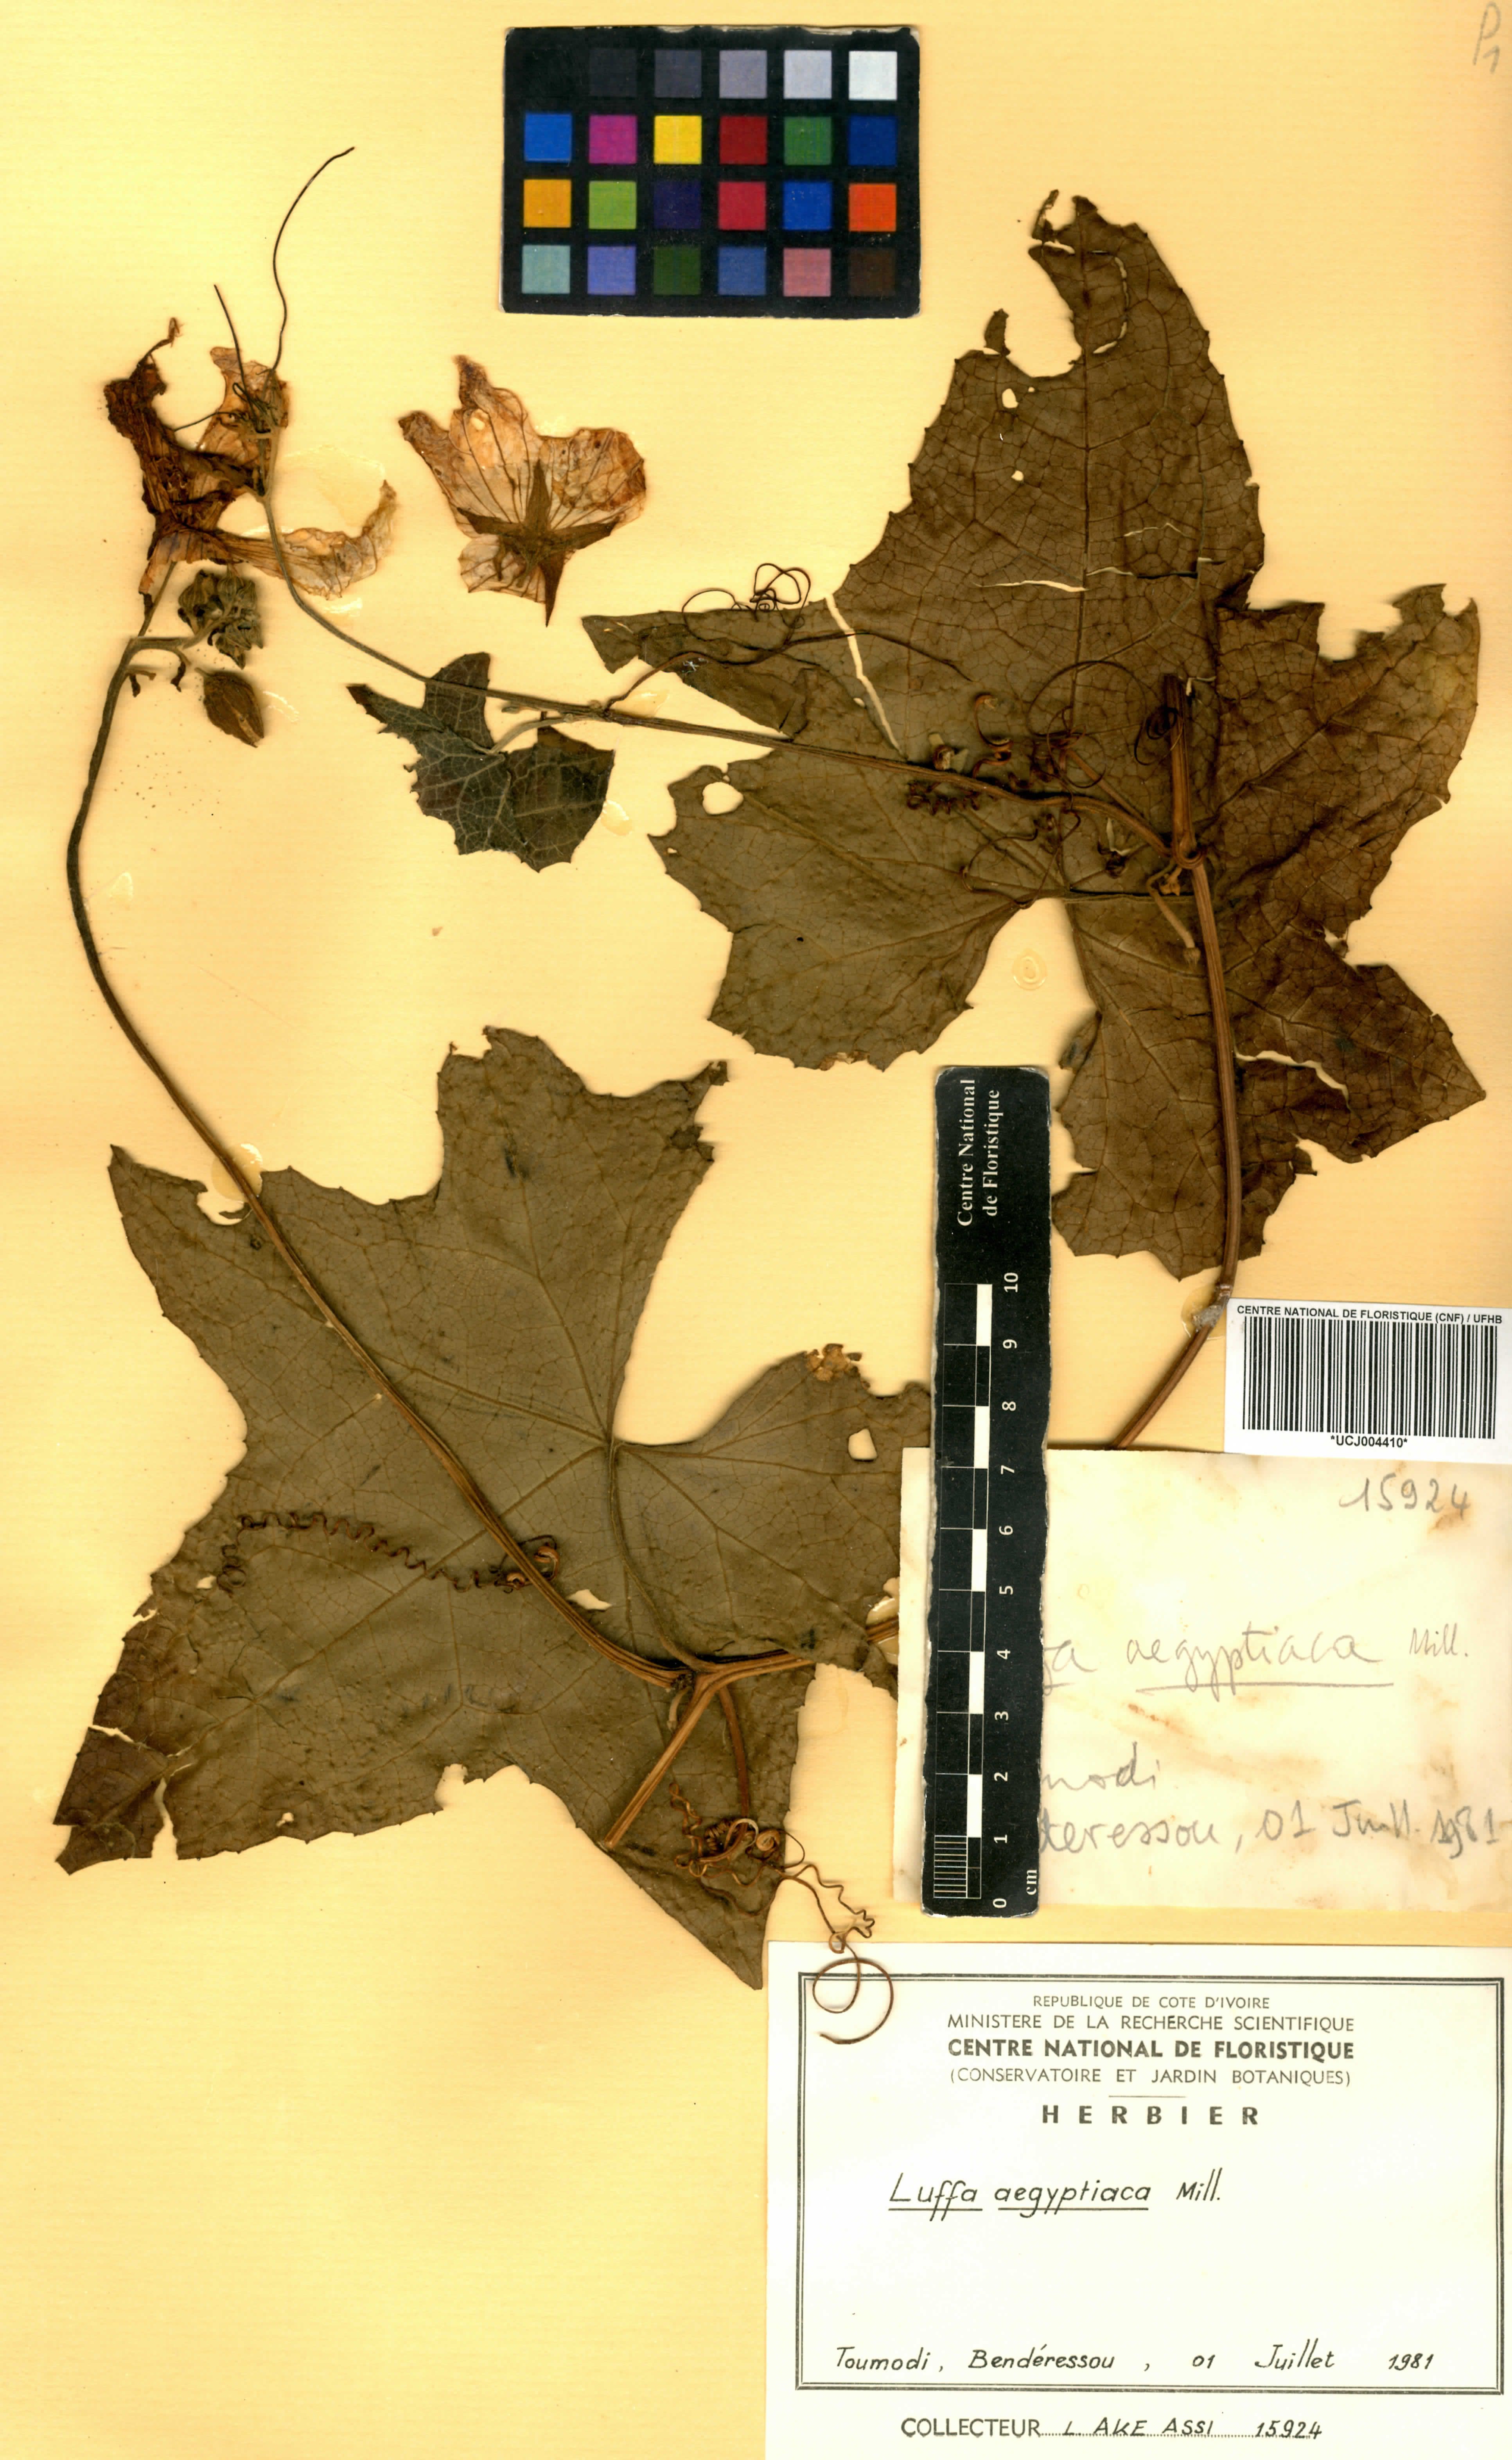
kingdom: Plantae
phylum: Tracheophyta
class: Magnoliopsida
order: Cucurbitales
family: Cucurbitaceae
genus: Luffa
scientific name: Luffa aegyptiaca
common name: Sponge gourd
